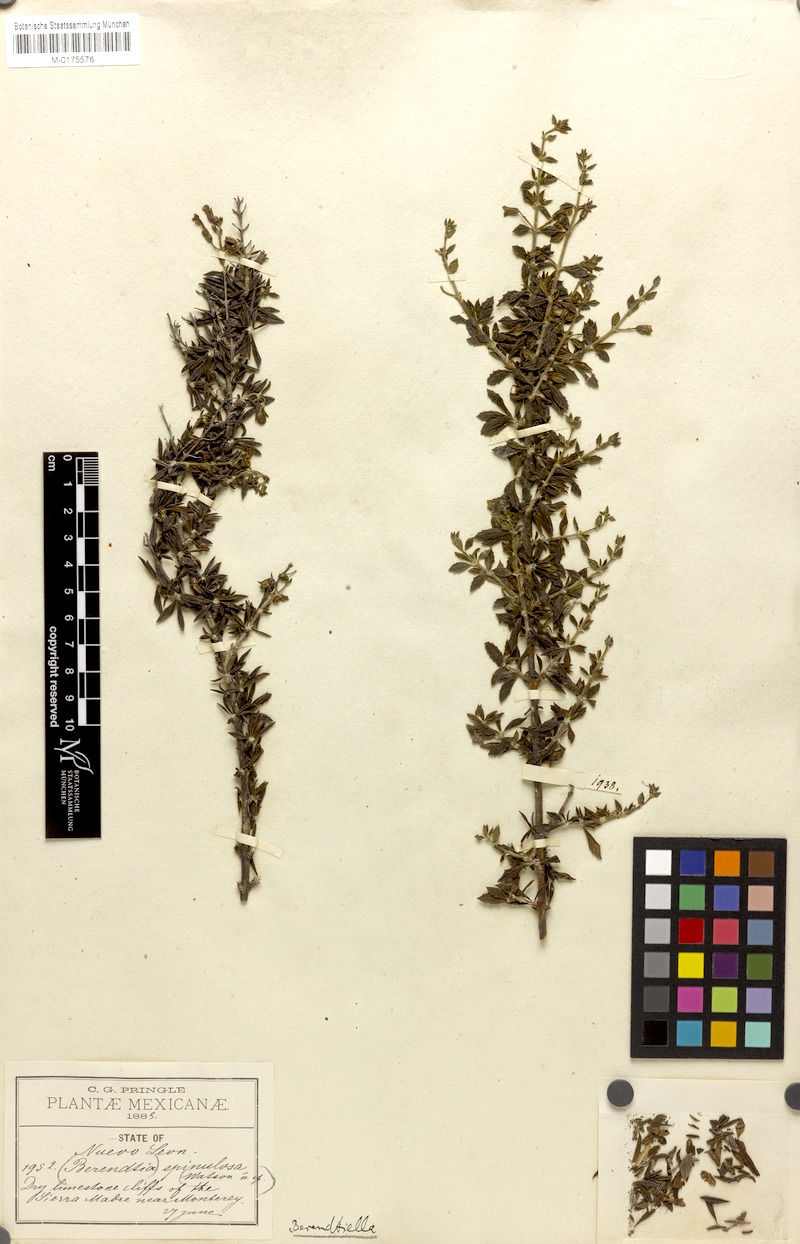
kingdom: Plantae
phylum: Tracheophyta
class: Magnoliopsida
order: Lamiales
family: Phrymaceae
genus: Hemichaena
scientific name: Hemichaena spinulosa
